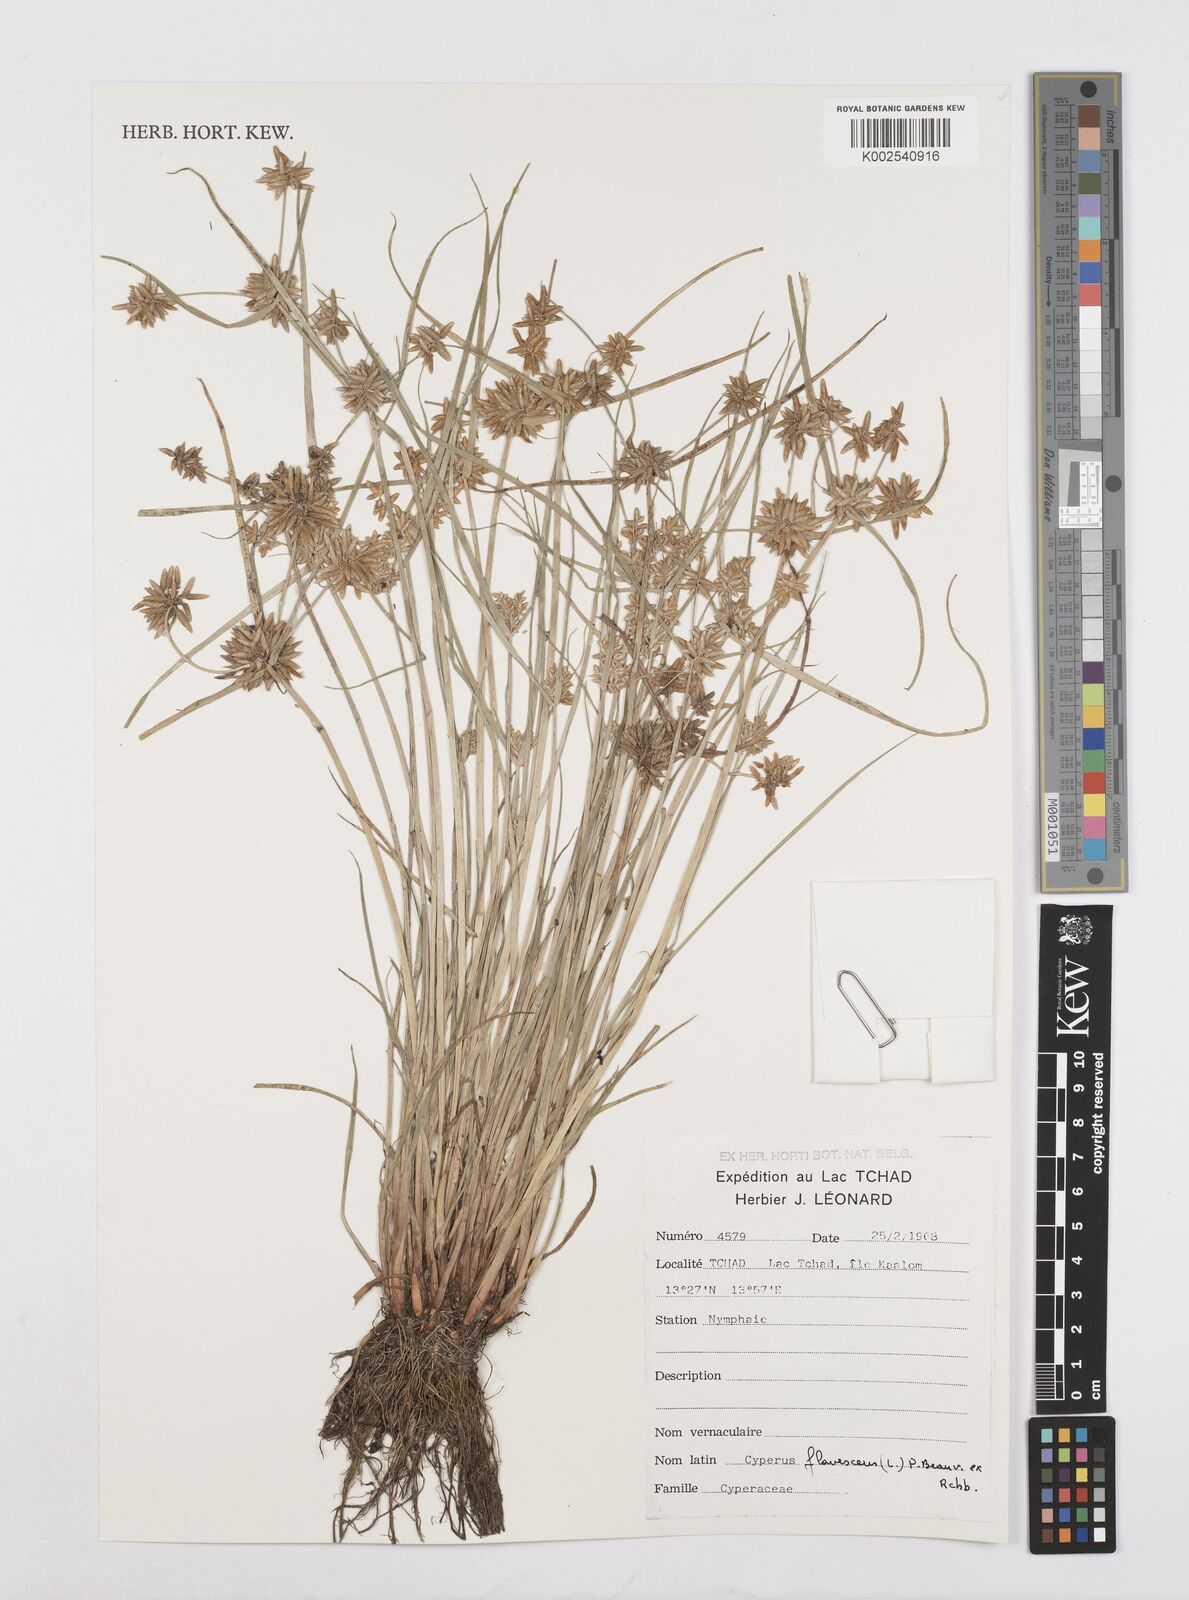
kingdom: Plantae
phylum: Tracheophyta
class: Liliopsida
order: Poales
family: Cyperaceae
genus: Cyperus
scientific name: Cyperus flavescens
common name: Yellow galingale
